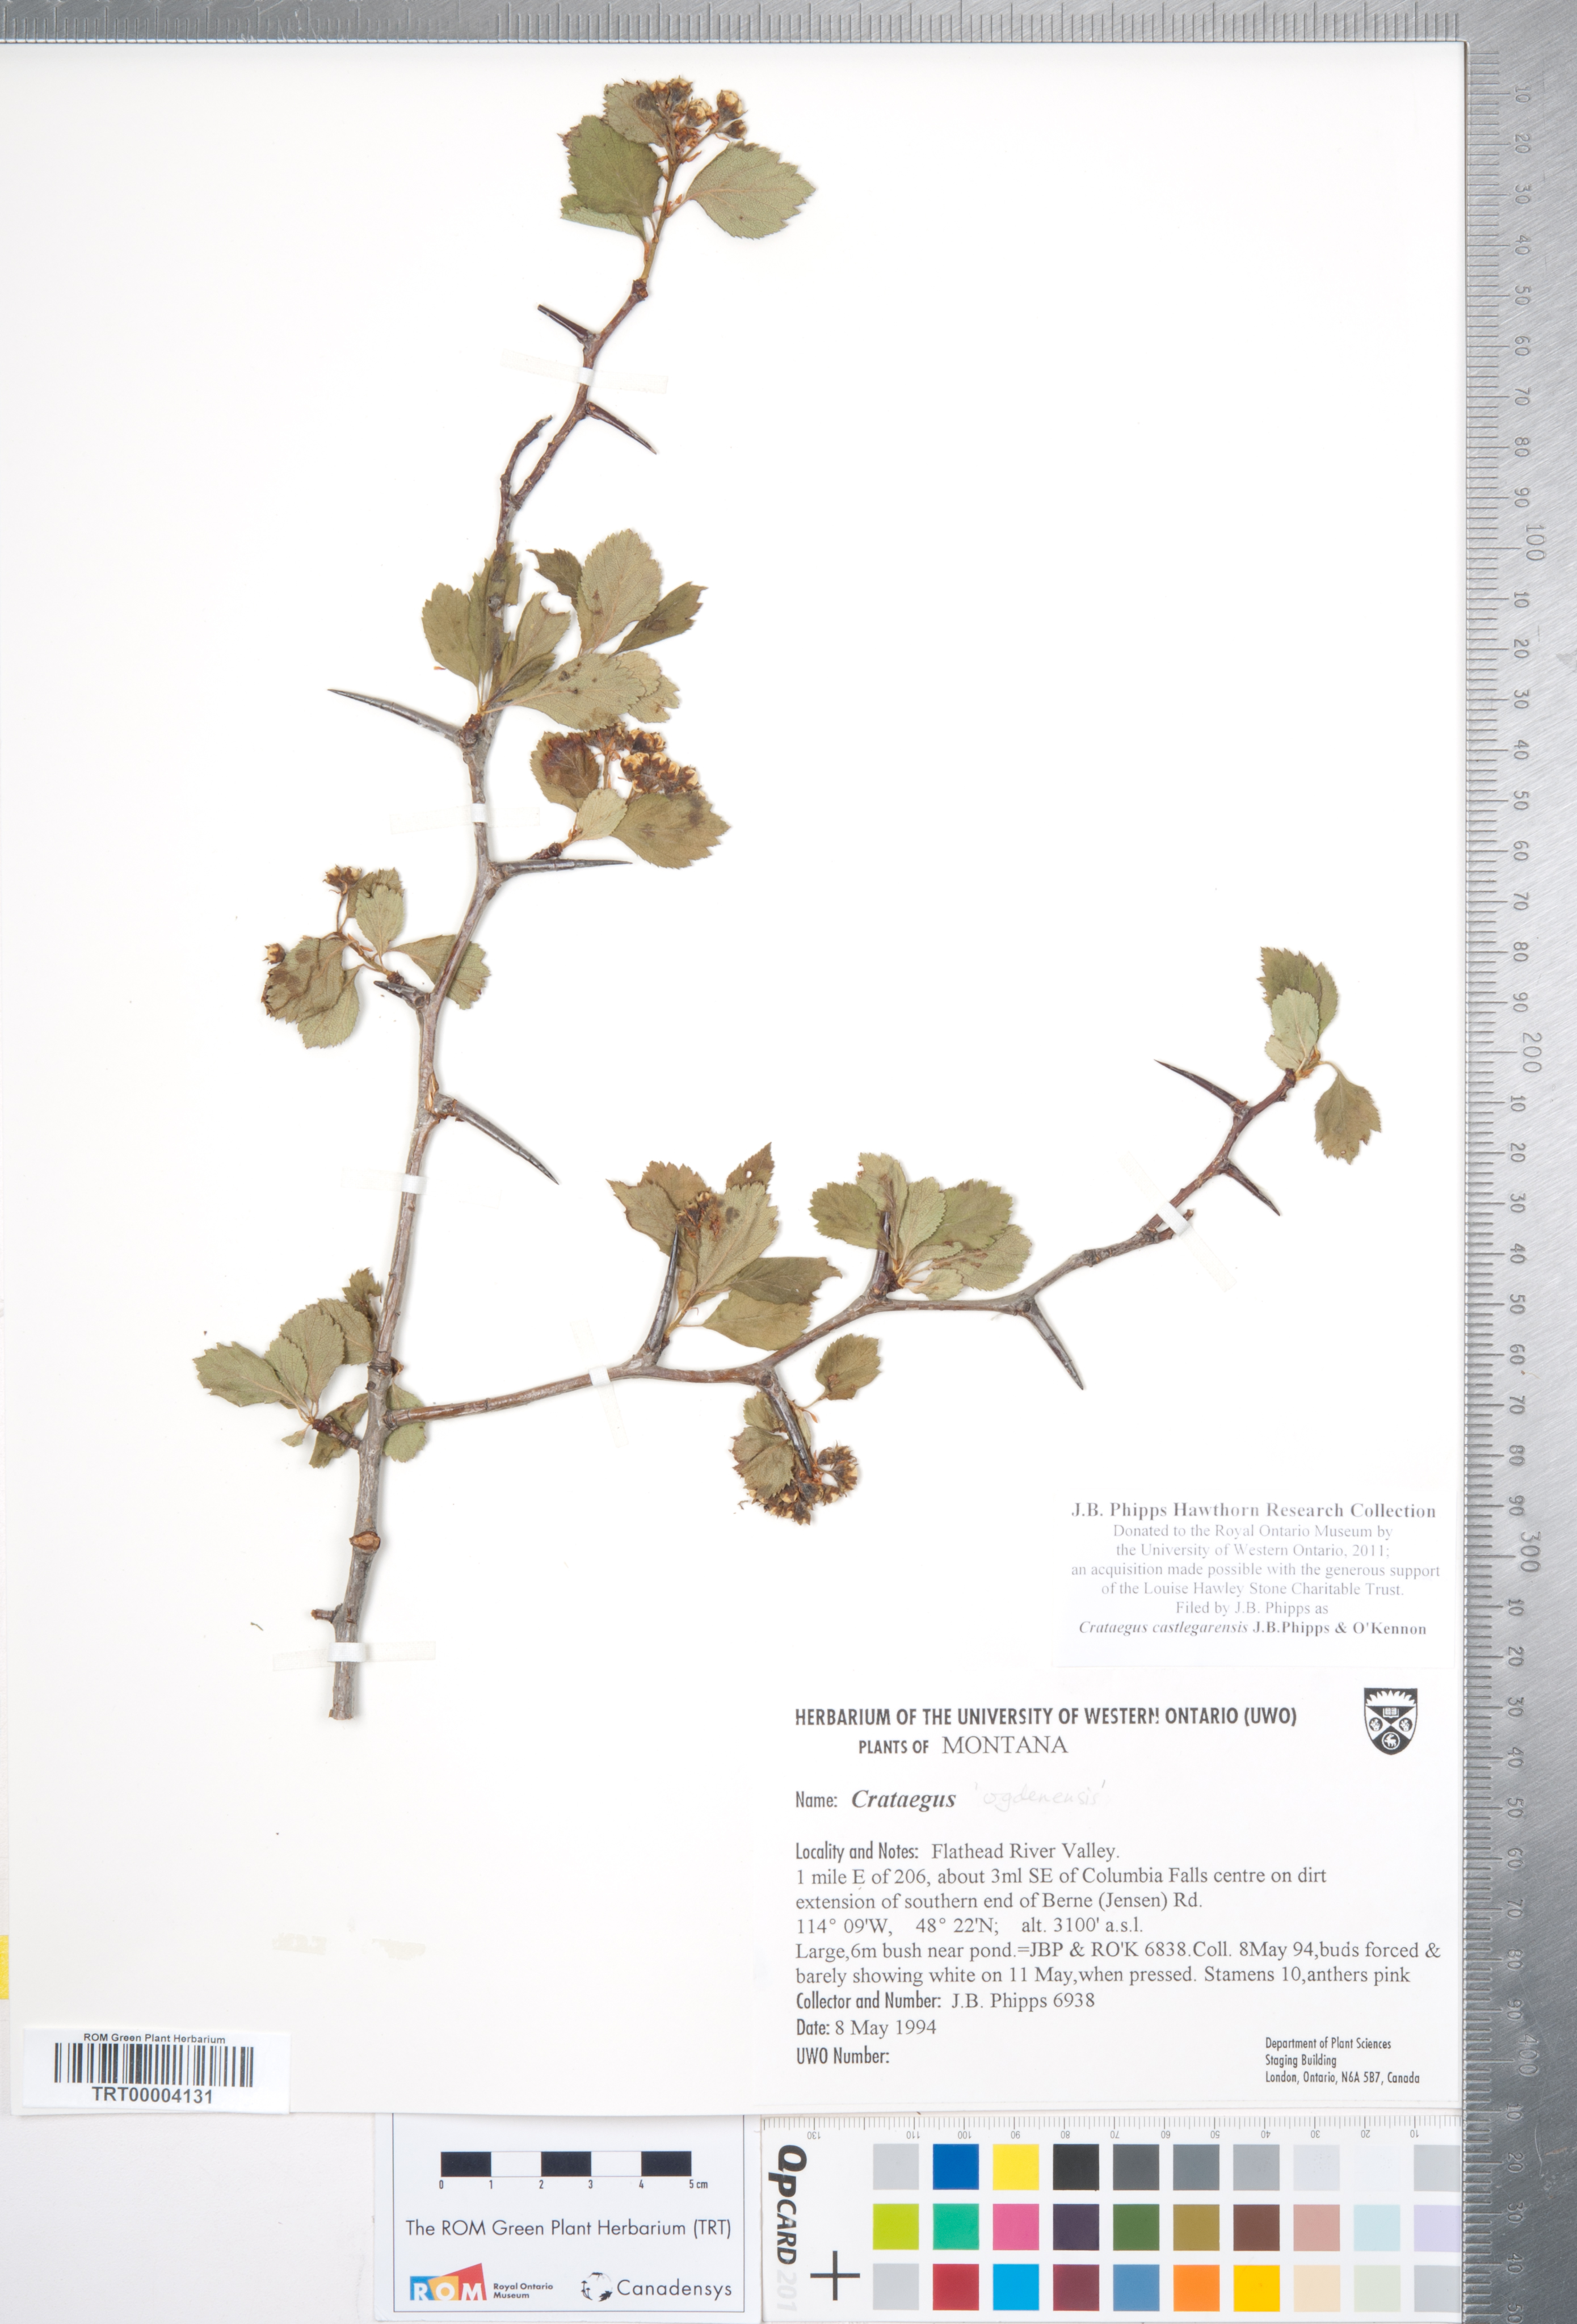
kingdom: Plantae
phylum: Tracheophyta
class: Magnoliopsida
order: Rosales
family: Rosaceae
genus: Crataegus
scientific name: Crataegus castlegarensis
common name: Castlegar hawthorn
